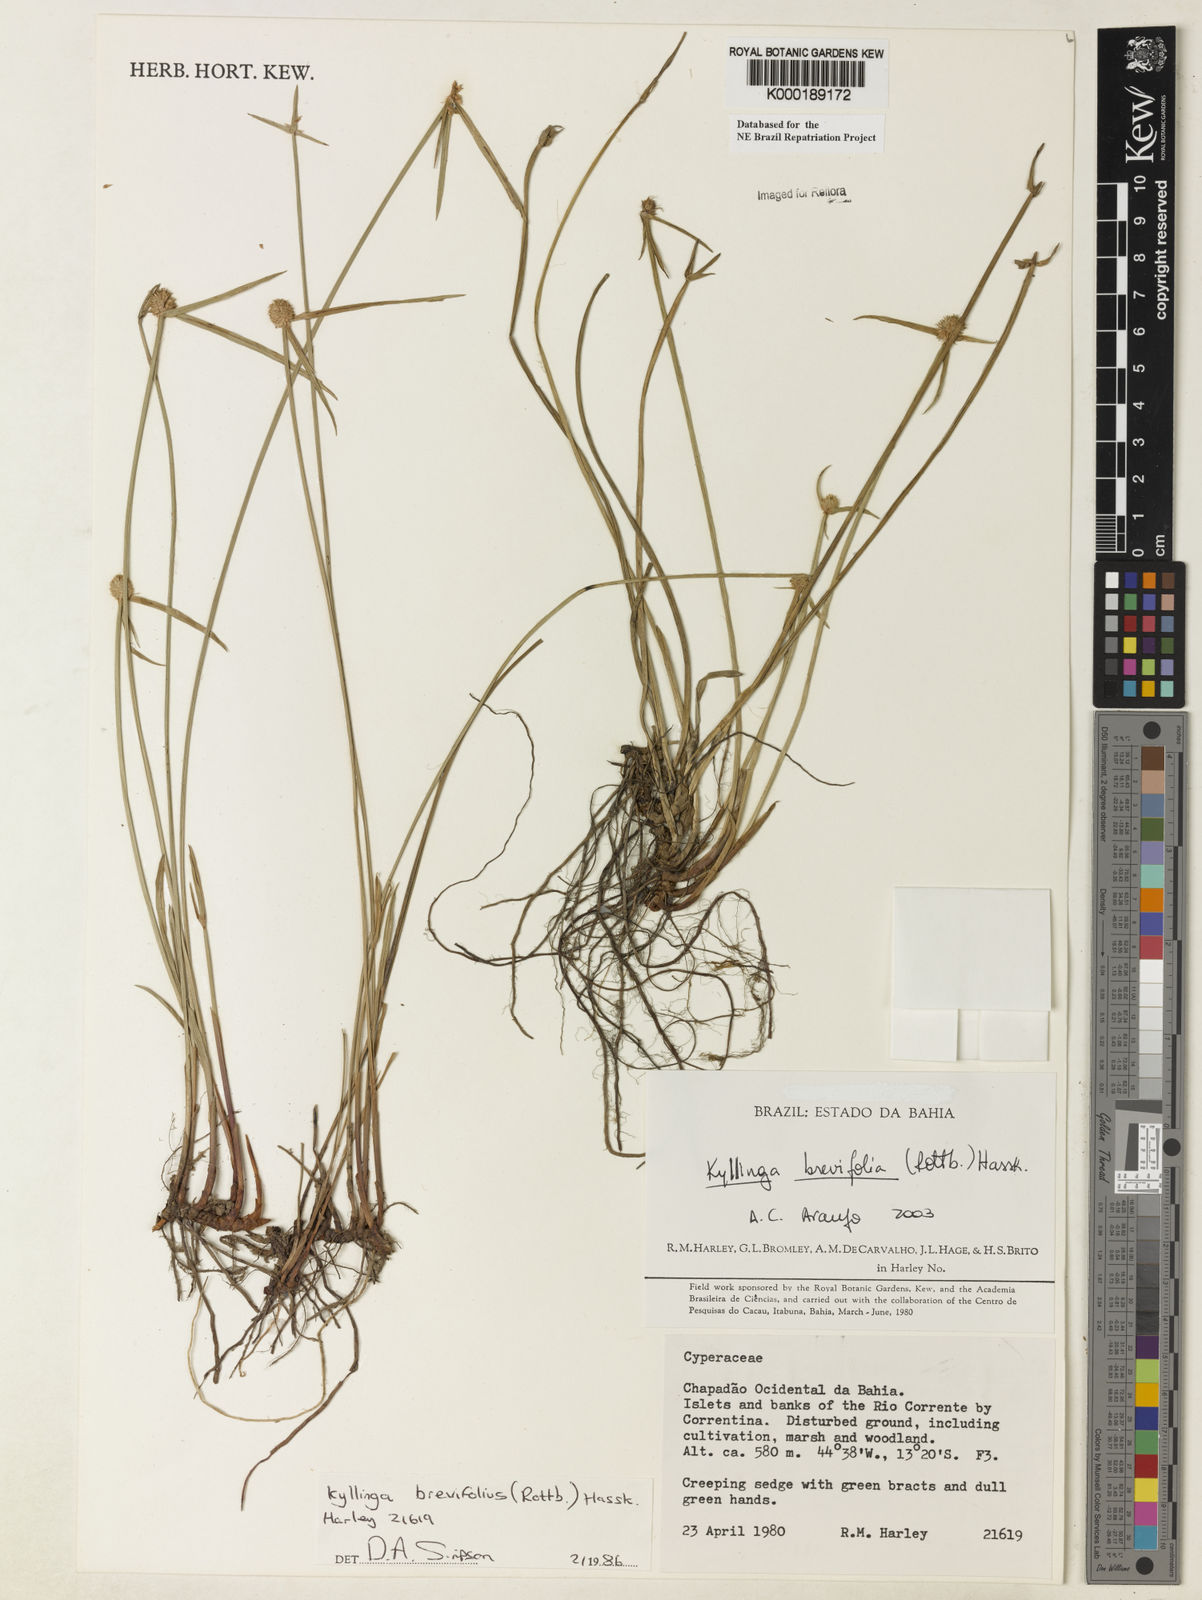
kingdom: Plantae
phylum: Tracheophyta
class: Liliopsida
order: Poales
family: Cyperaceae
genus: Cyperus
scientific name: Cyperus brevifolius
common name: Globe kyllinga
